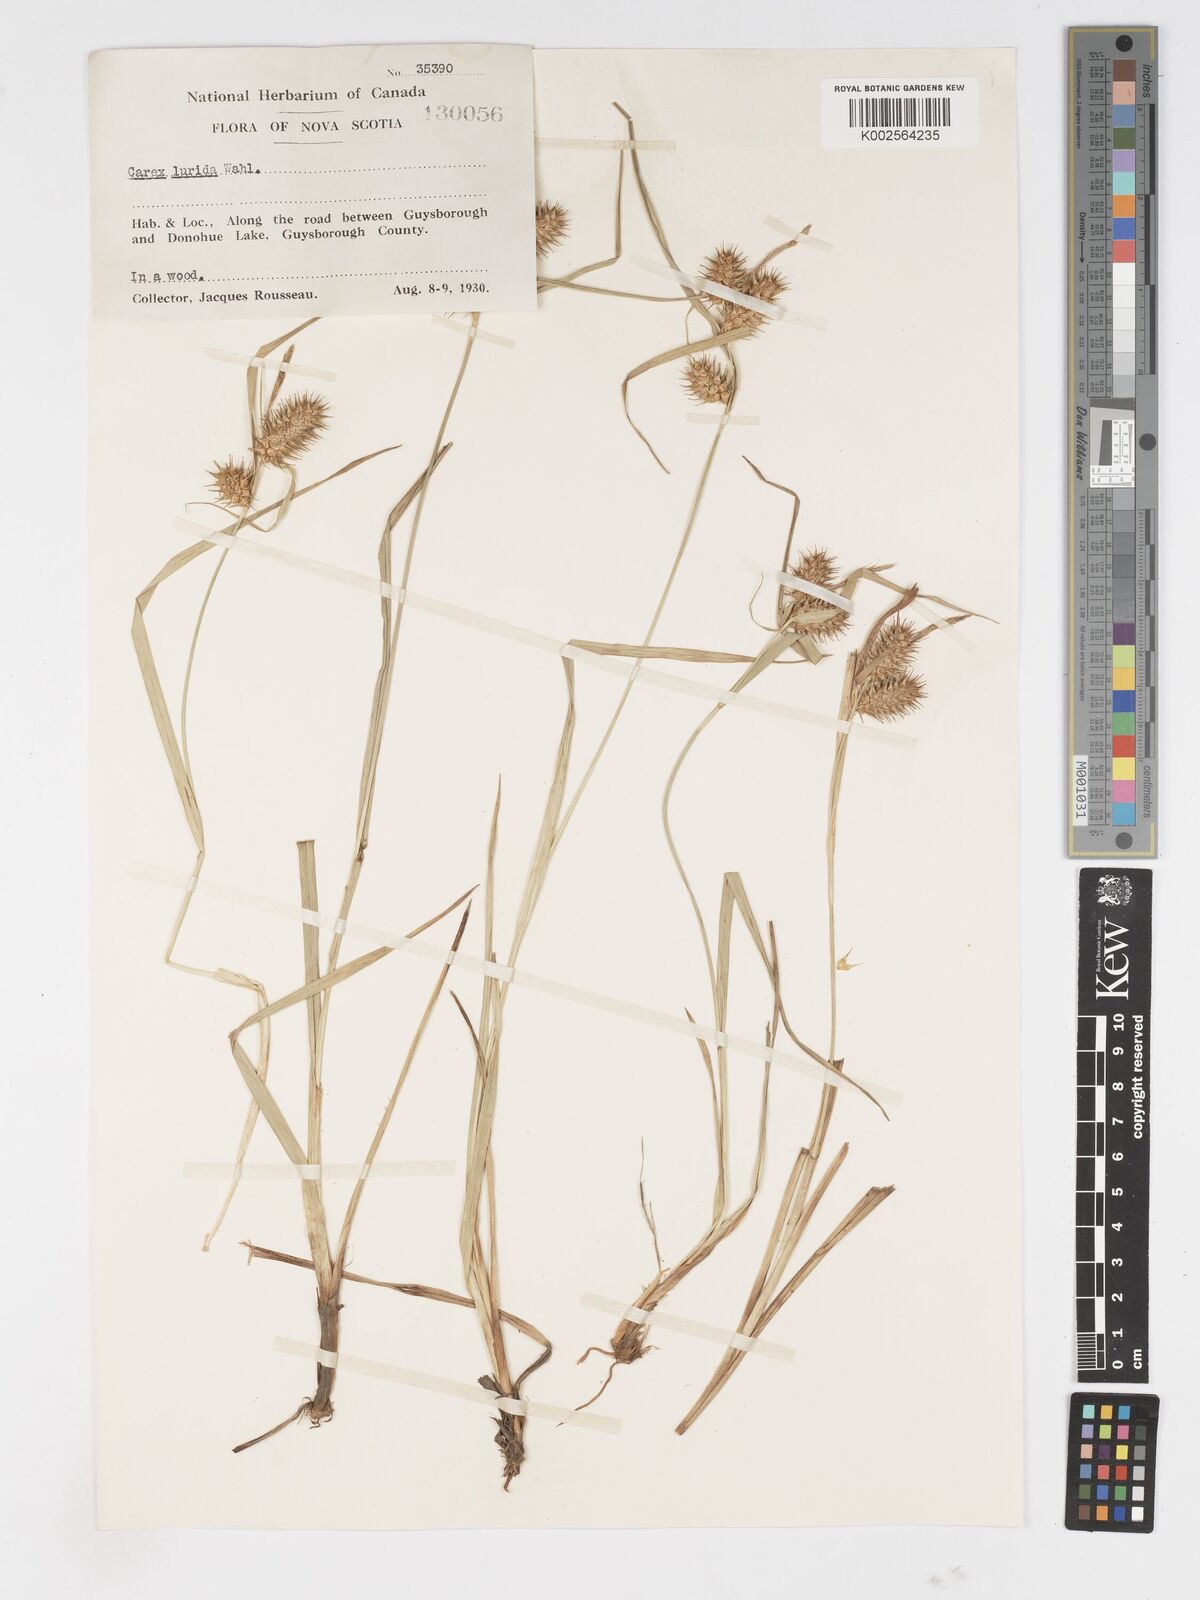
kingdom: Plantae
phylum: Tracheophyta
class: Liliopsida
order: Poales
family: Cyperaceae
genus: Carex
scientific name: Carex lurida
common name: Sallow sedge
